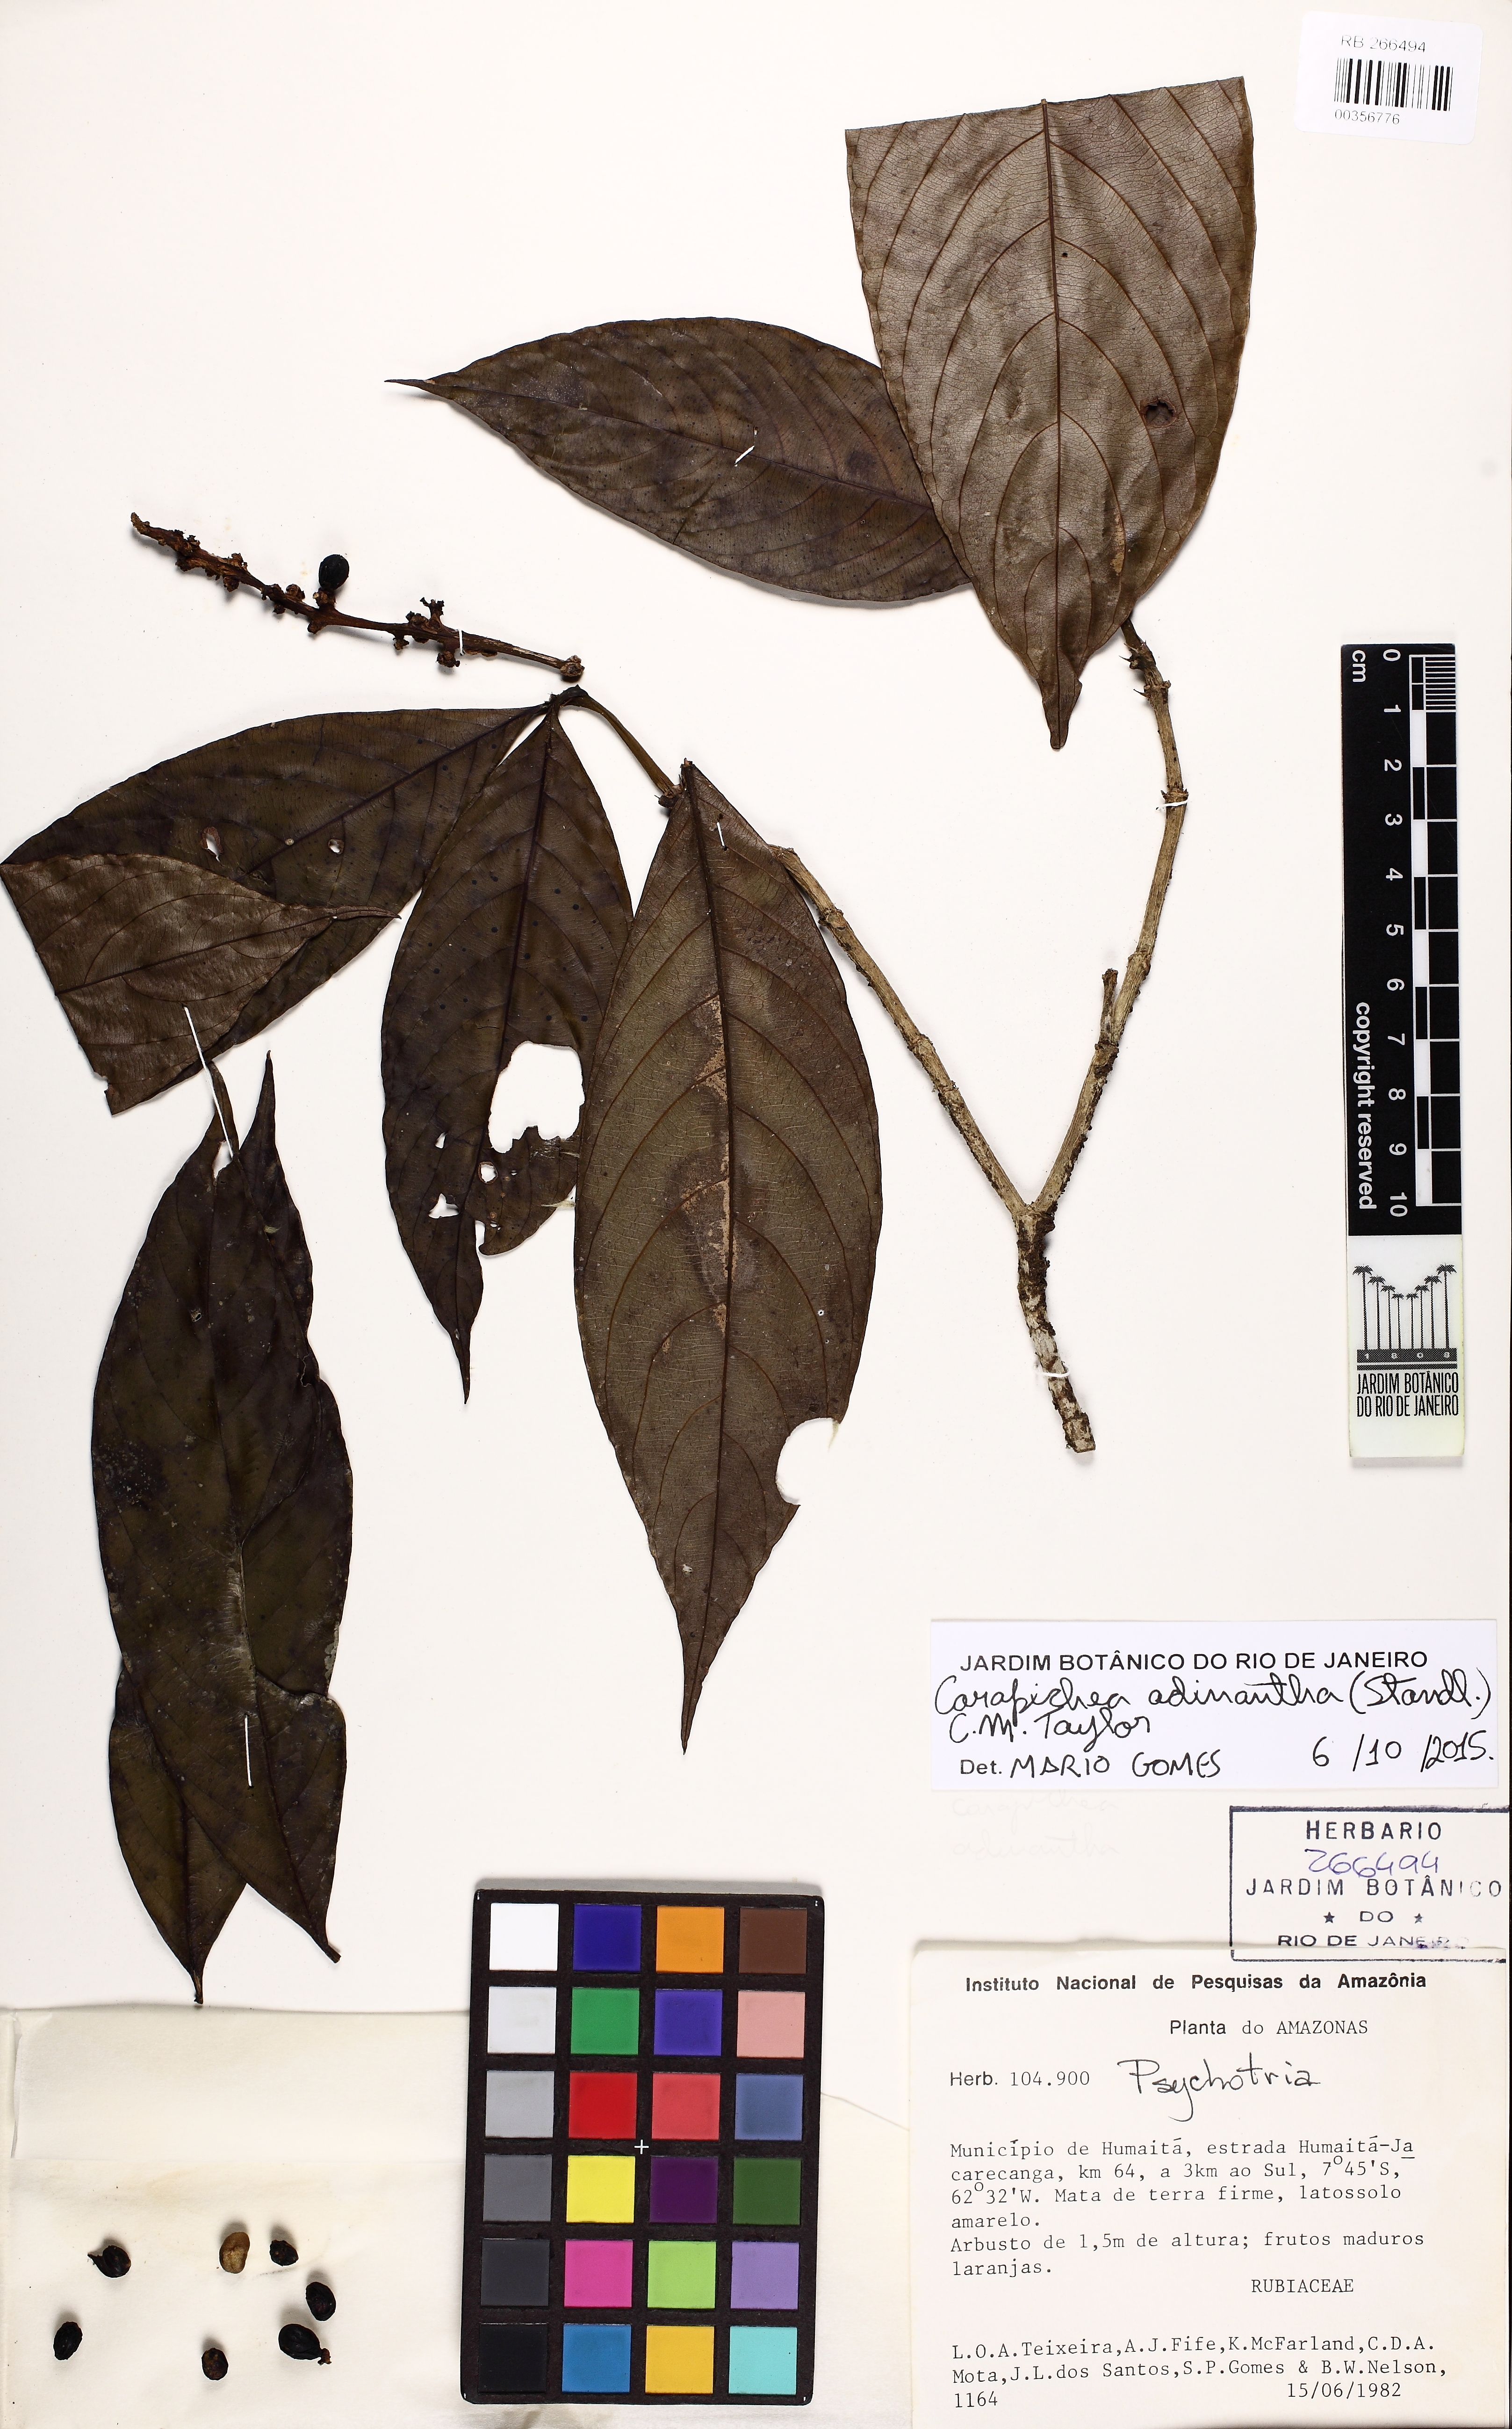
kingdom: Plantae
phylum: Tracheophyta
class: Magnoliopsida
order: Gentianales
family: Rubiaceae
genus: Carapichea
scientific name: Carapichea adinantha
